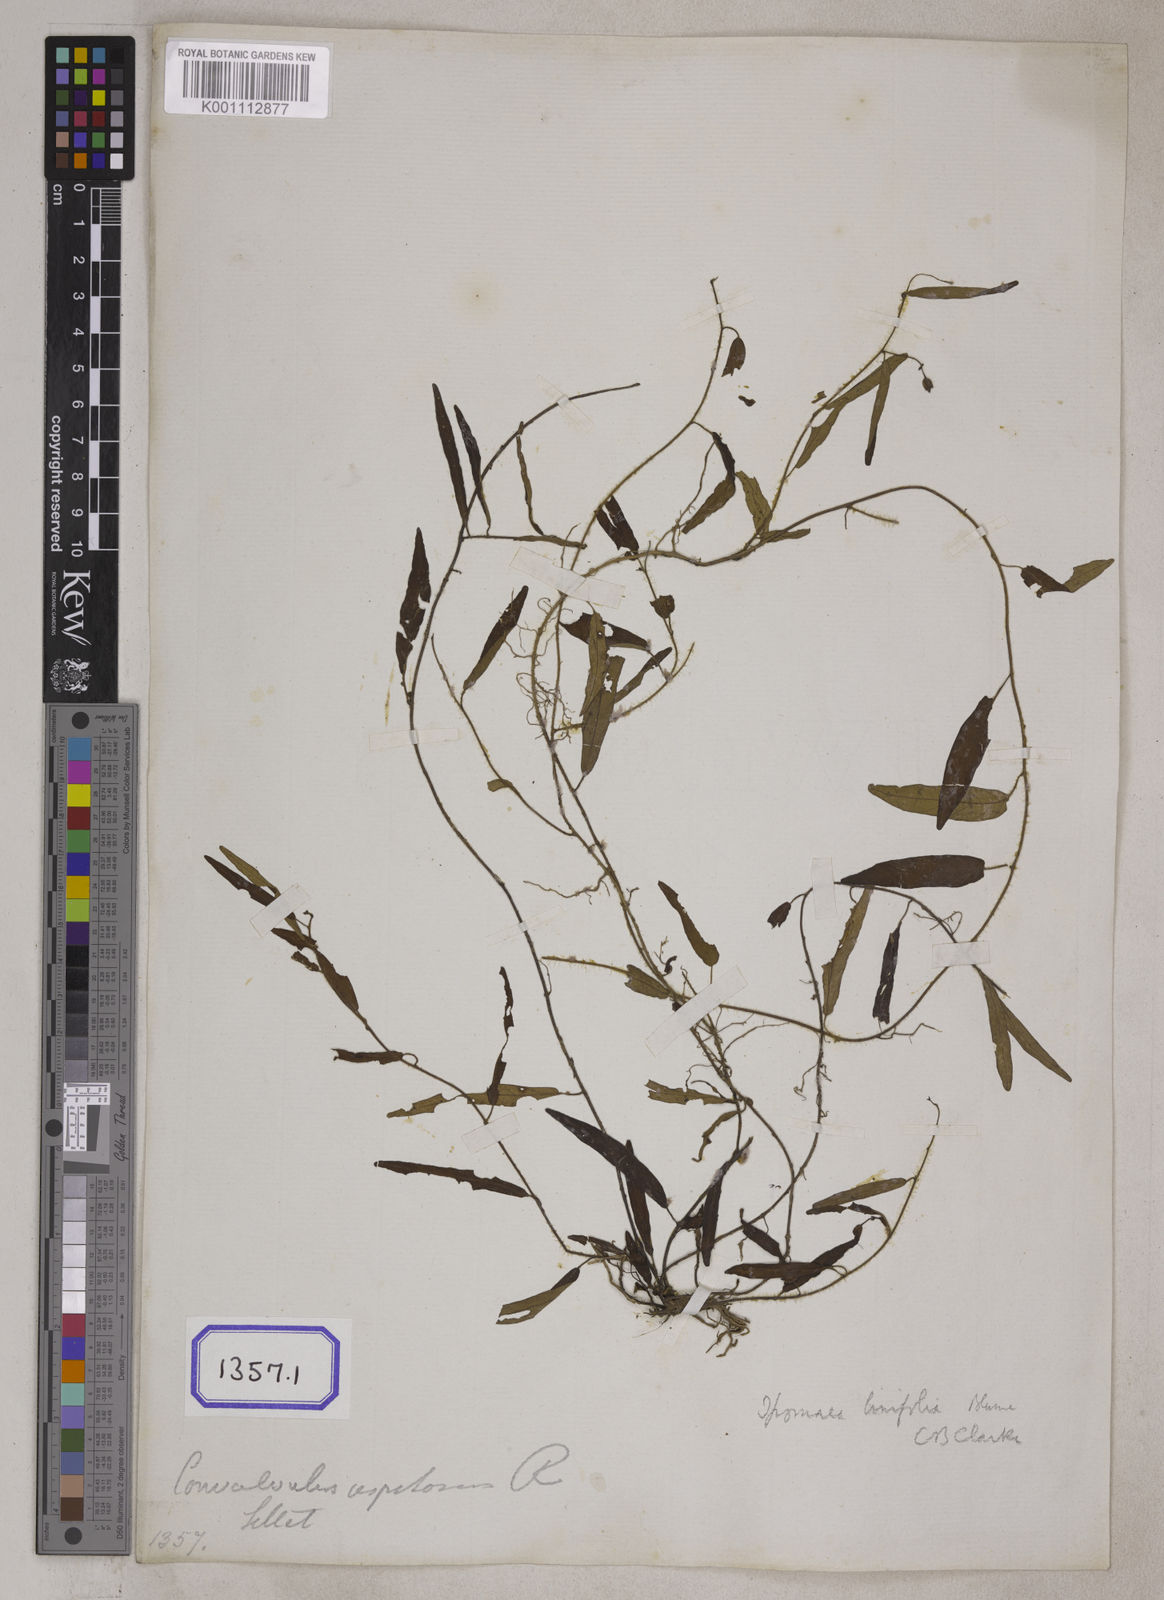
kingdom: Plantae
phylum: Tracheophyta
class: Magnoliopsida
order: Solanales
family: Convolvulaceae
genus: Convolvulus
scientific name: Convolvulus libanoticus
